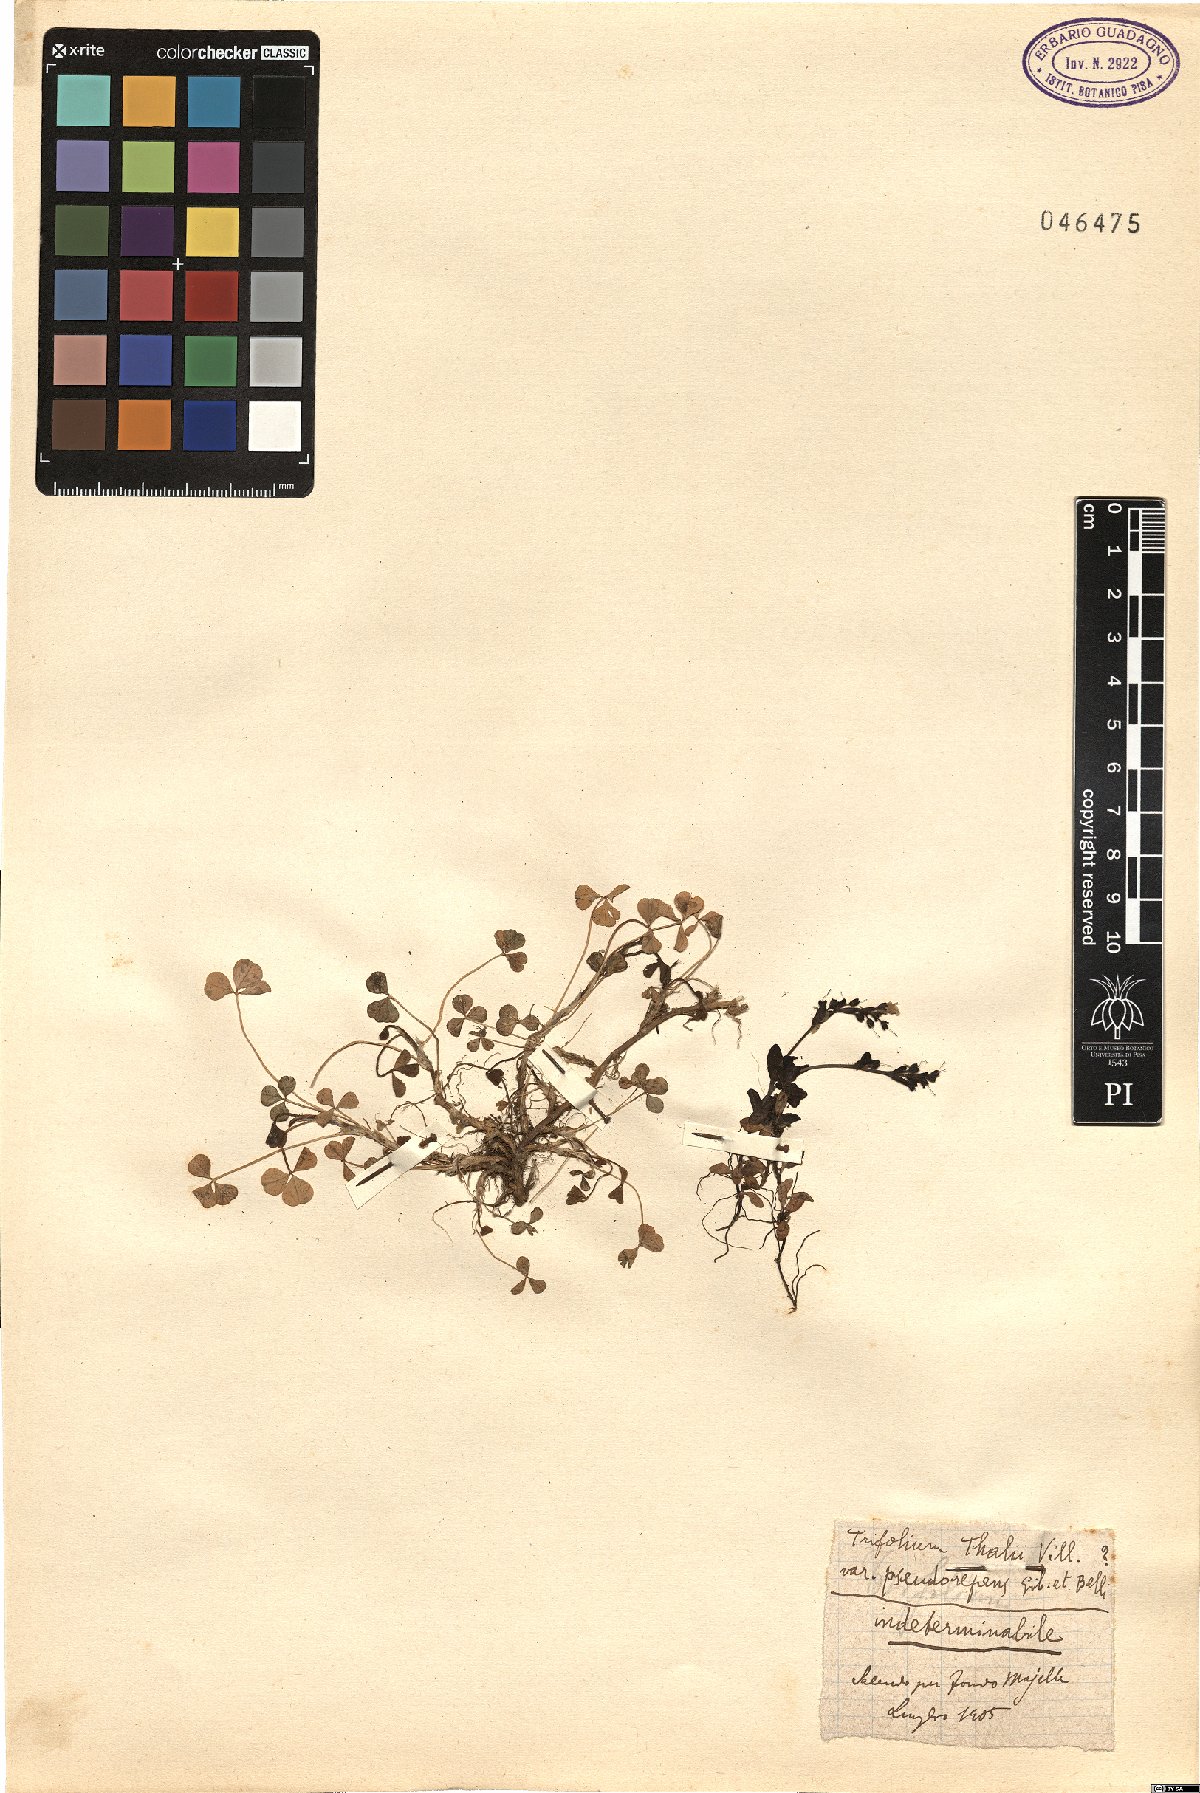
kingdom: Plantae
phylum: Tracheophyta
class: Magnoliopsida
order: Fabales
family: Fabaceae
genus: Trifolium
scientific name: Trifolium thalii
